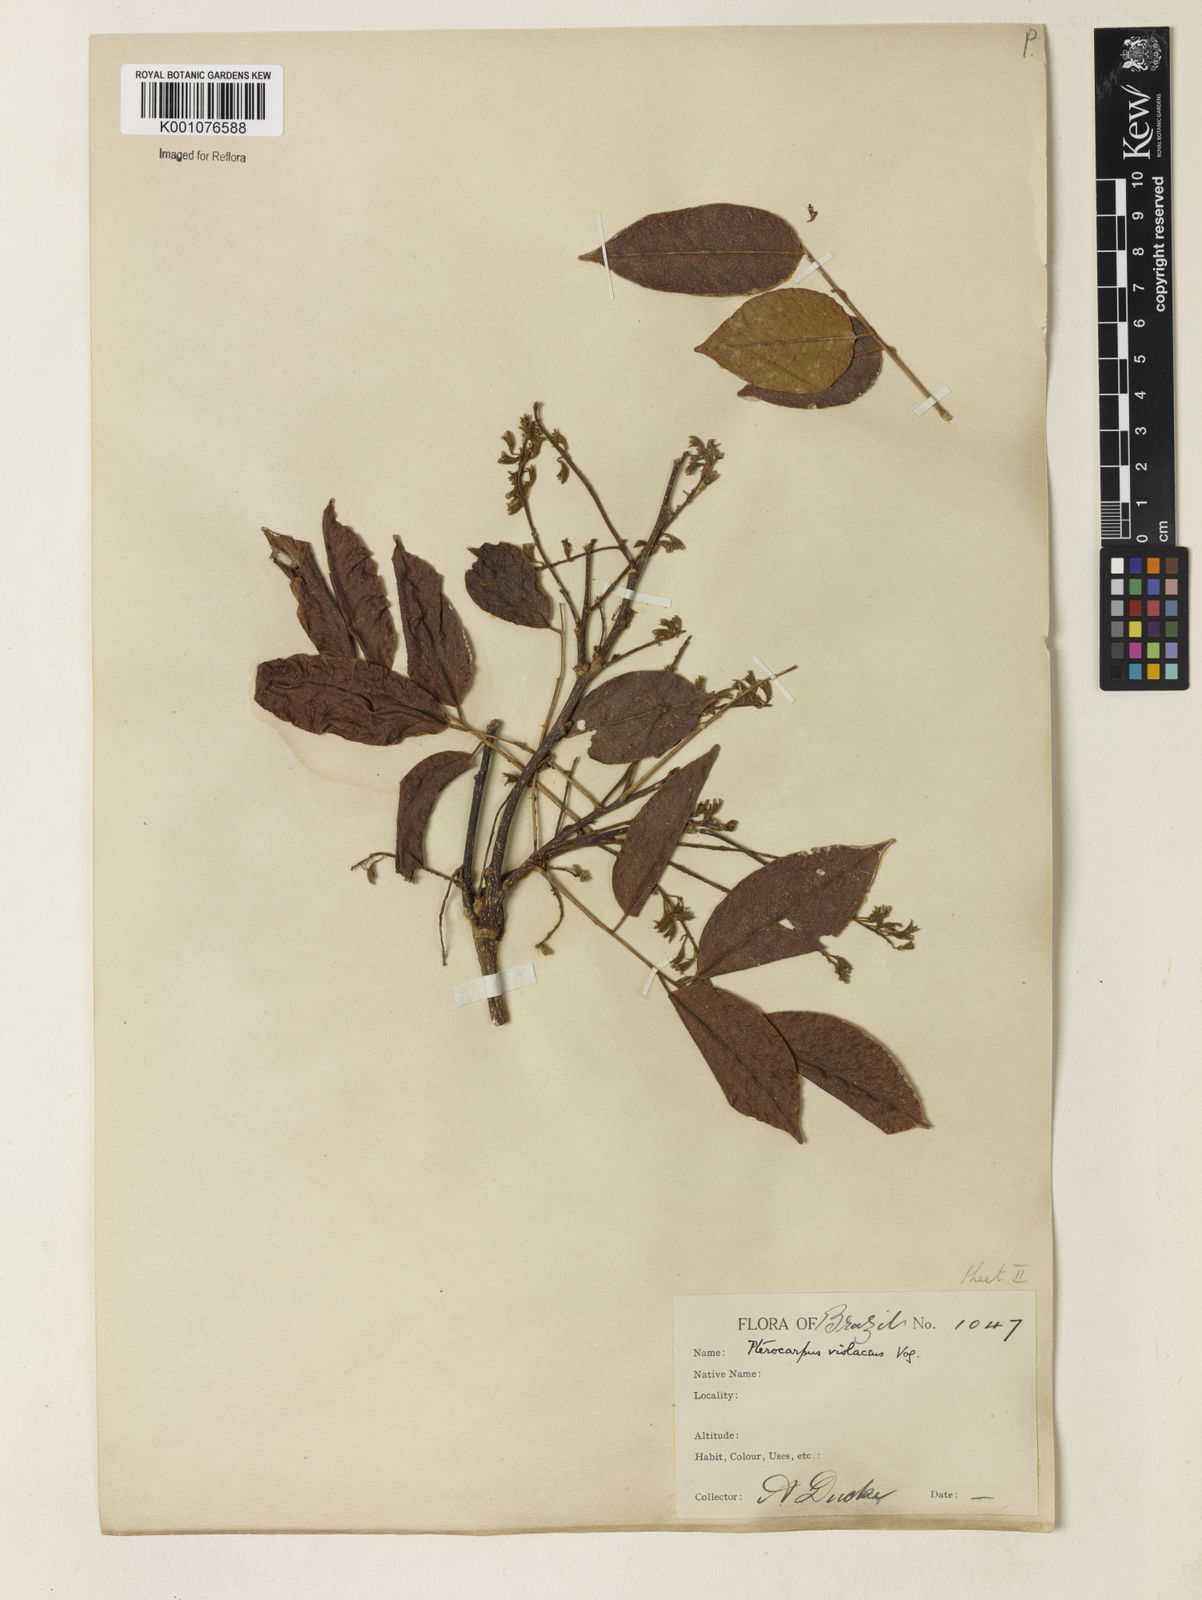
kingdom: Plantae
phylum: Tracheophyta
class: Magnoliopsida
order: Fabales
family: Fabaceae
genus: Pterocarpus
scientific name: Pterocarpus rohrii
